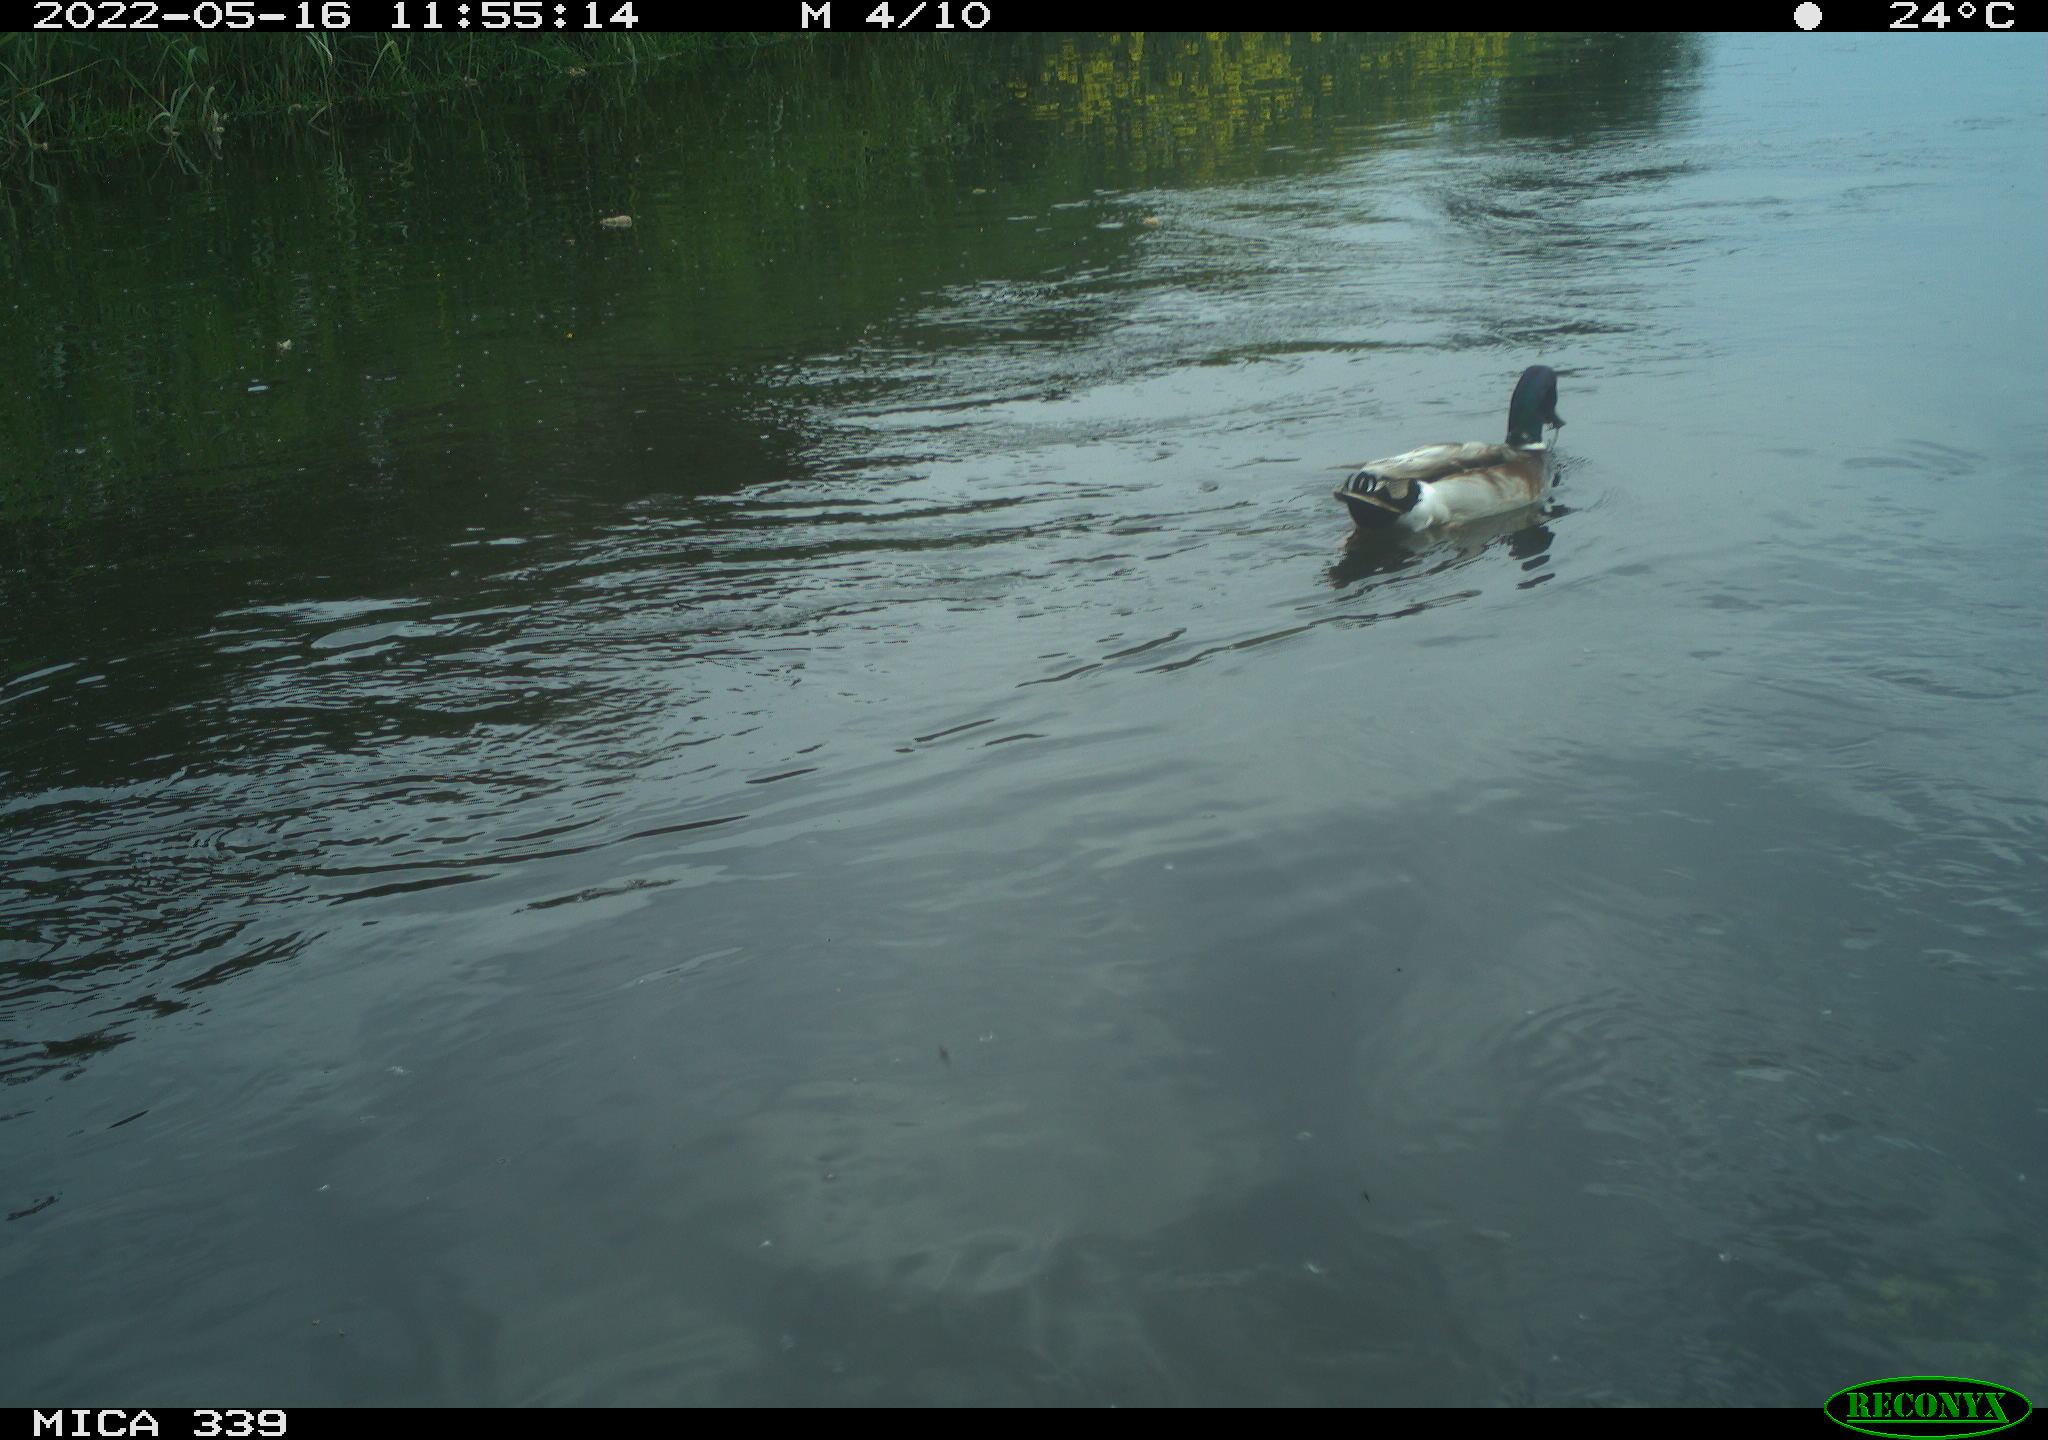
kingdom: Animalia
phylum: Chordata
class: Aves
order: Anseriformes
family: Anatidae
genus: Anas
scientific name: Anas platyrhynchos
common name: Mallard
